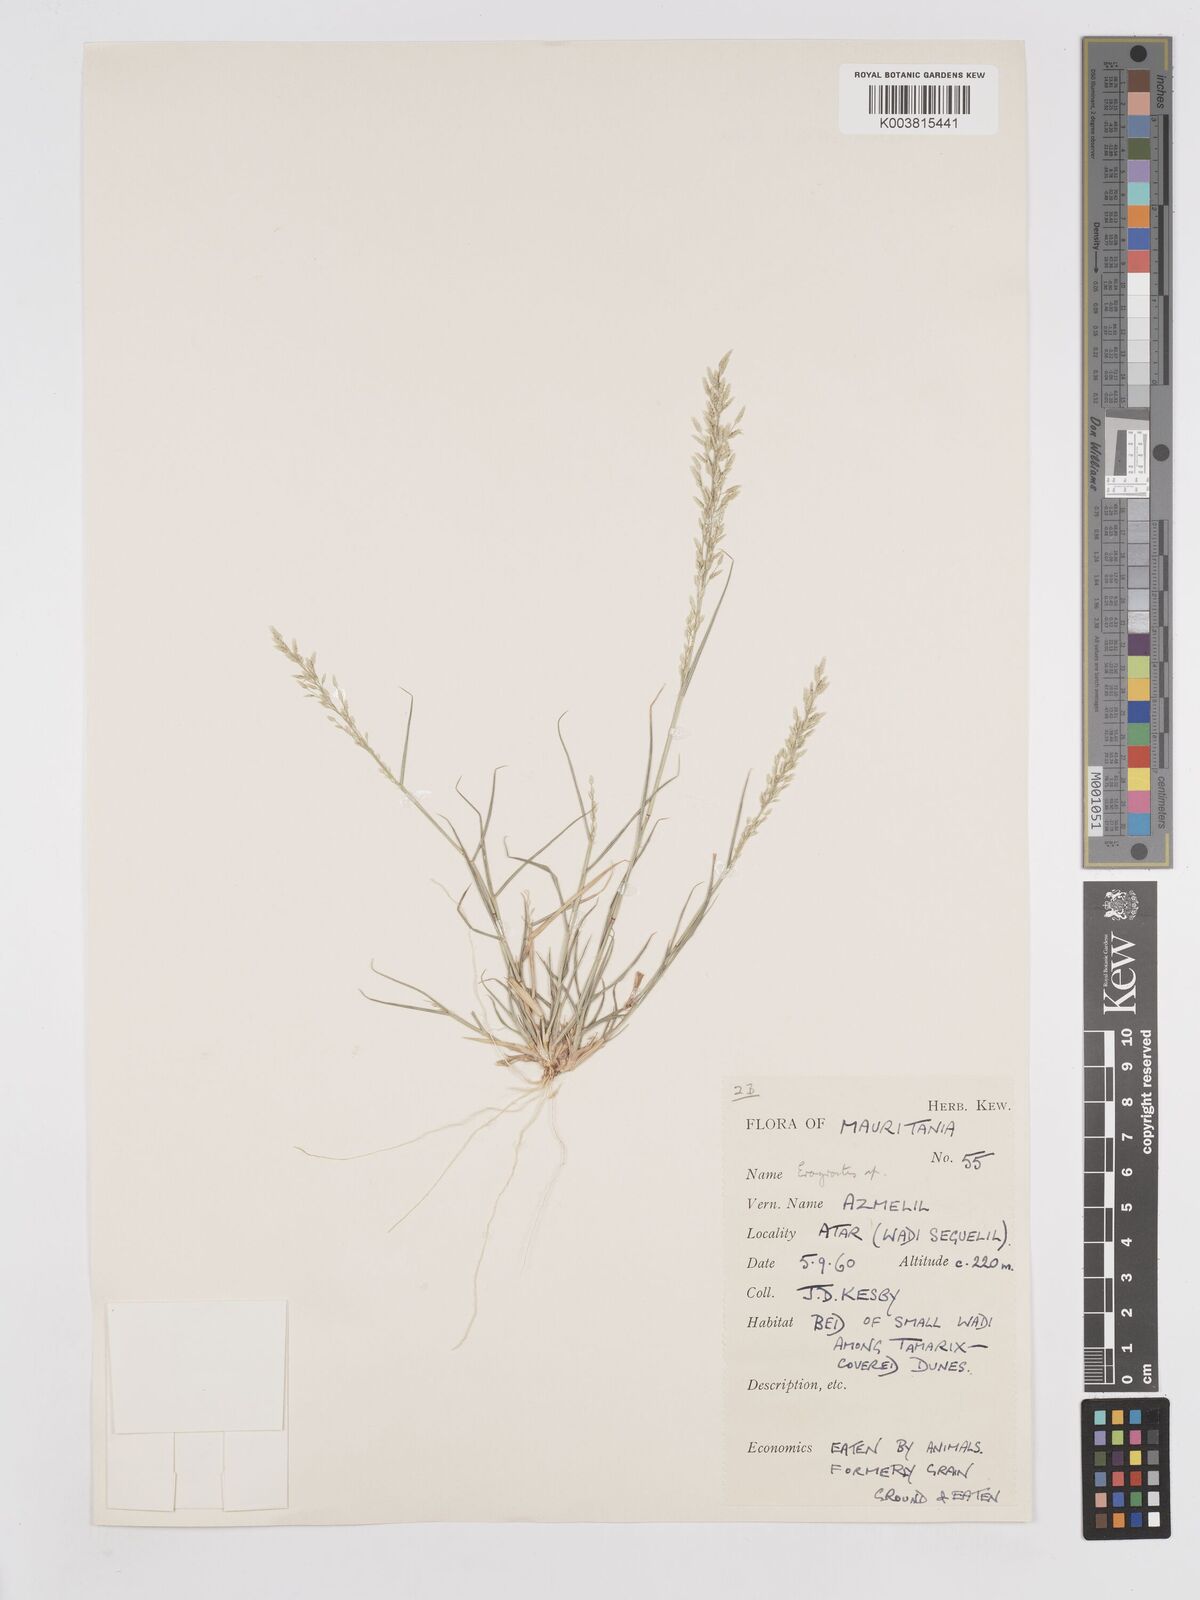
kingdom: Plantae
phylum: Tracheophyta
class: Liliopsida
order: Poales
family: Poaceae
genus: Eragrostis
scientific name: Eragrostis minor
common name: Small love-grass
